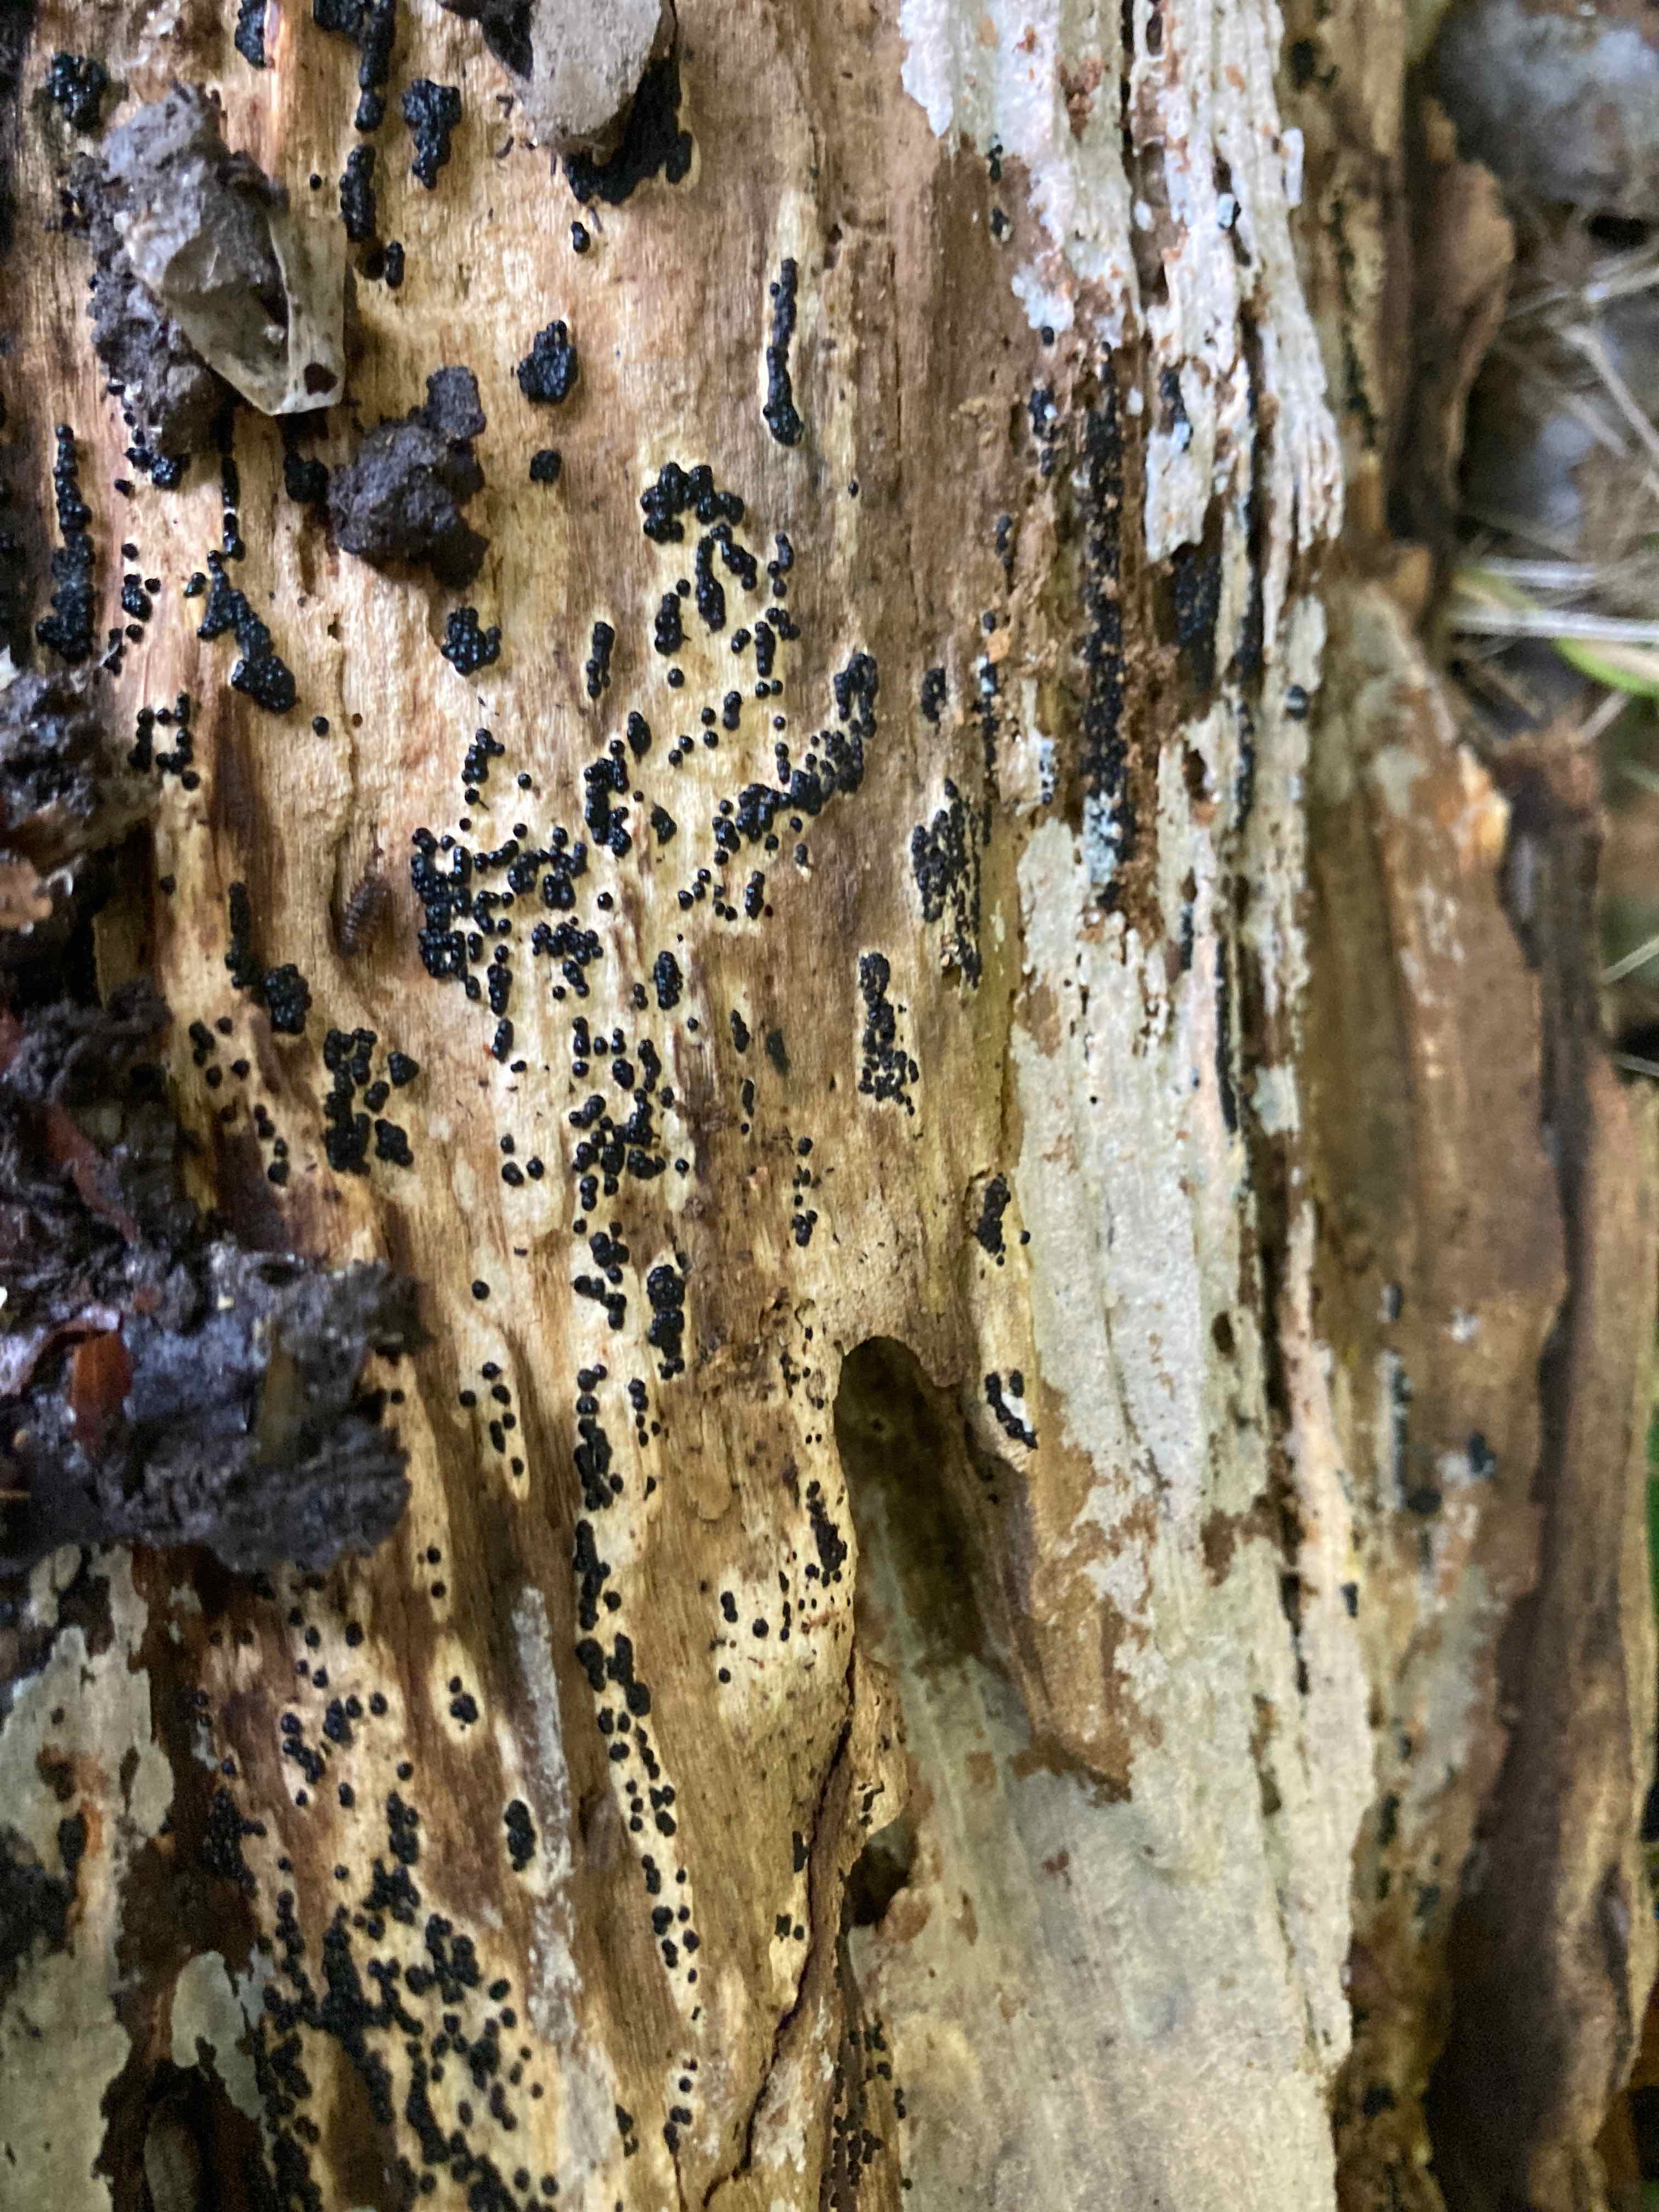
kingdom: Fungi
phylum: Ascomycota
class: Sordariomycetes
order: Xylariales
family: Xylariaceae
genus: Nemania
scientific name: Nemania maritima
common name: strand-kuldyne
